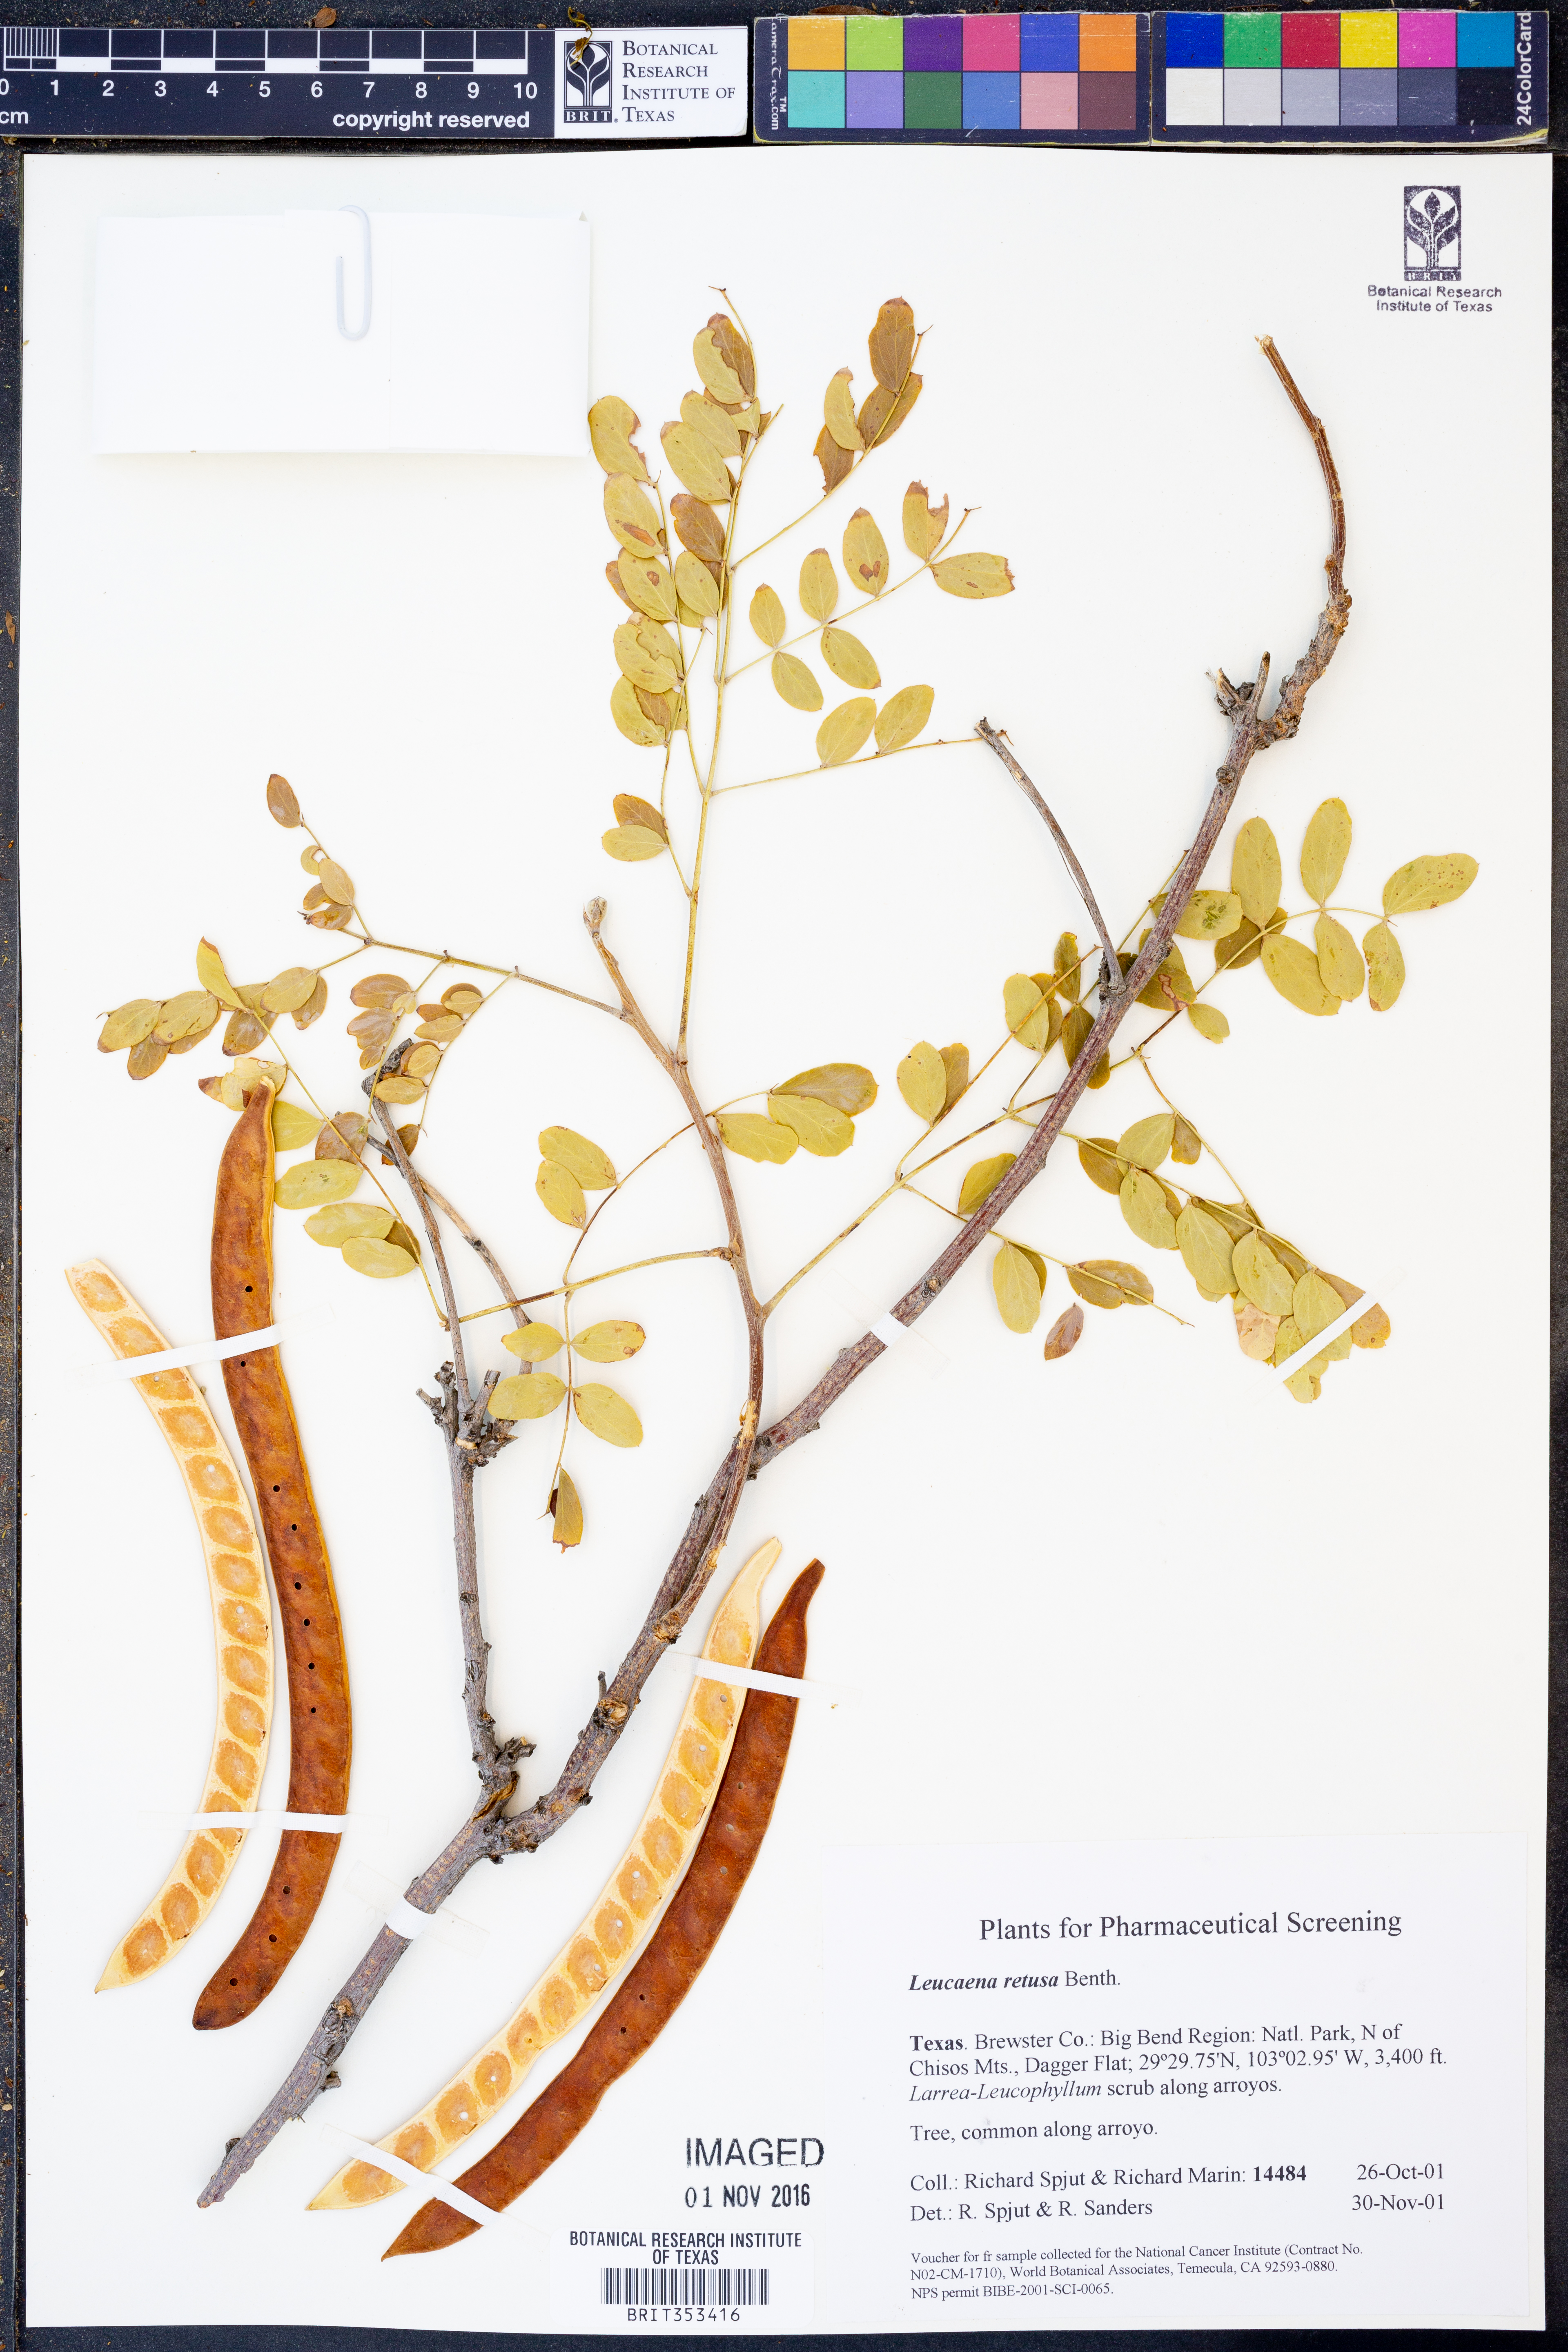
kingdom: Plantae
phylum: Tracheophyta
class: Magnoliopsida
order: Fabales
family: Fabaceae
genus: Leucaena
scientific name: Leucaena retusa
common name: Littleleaf leadtree
